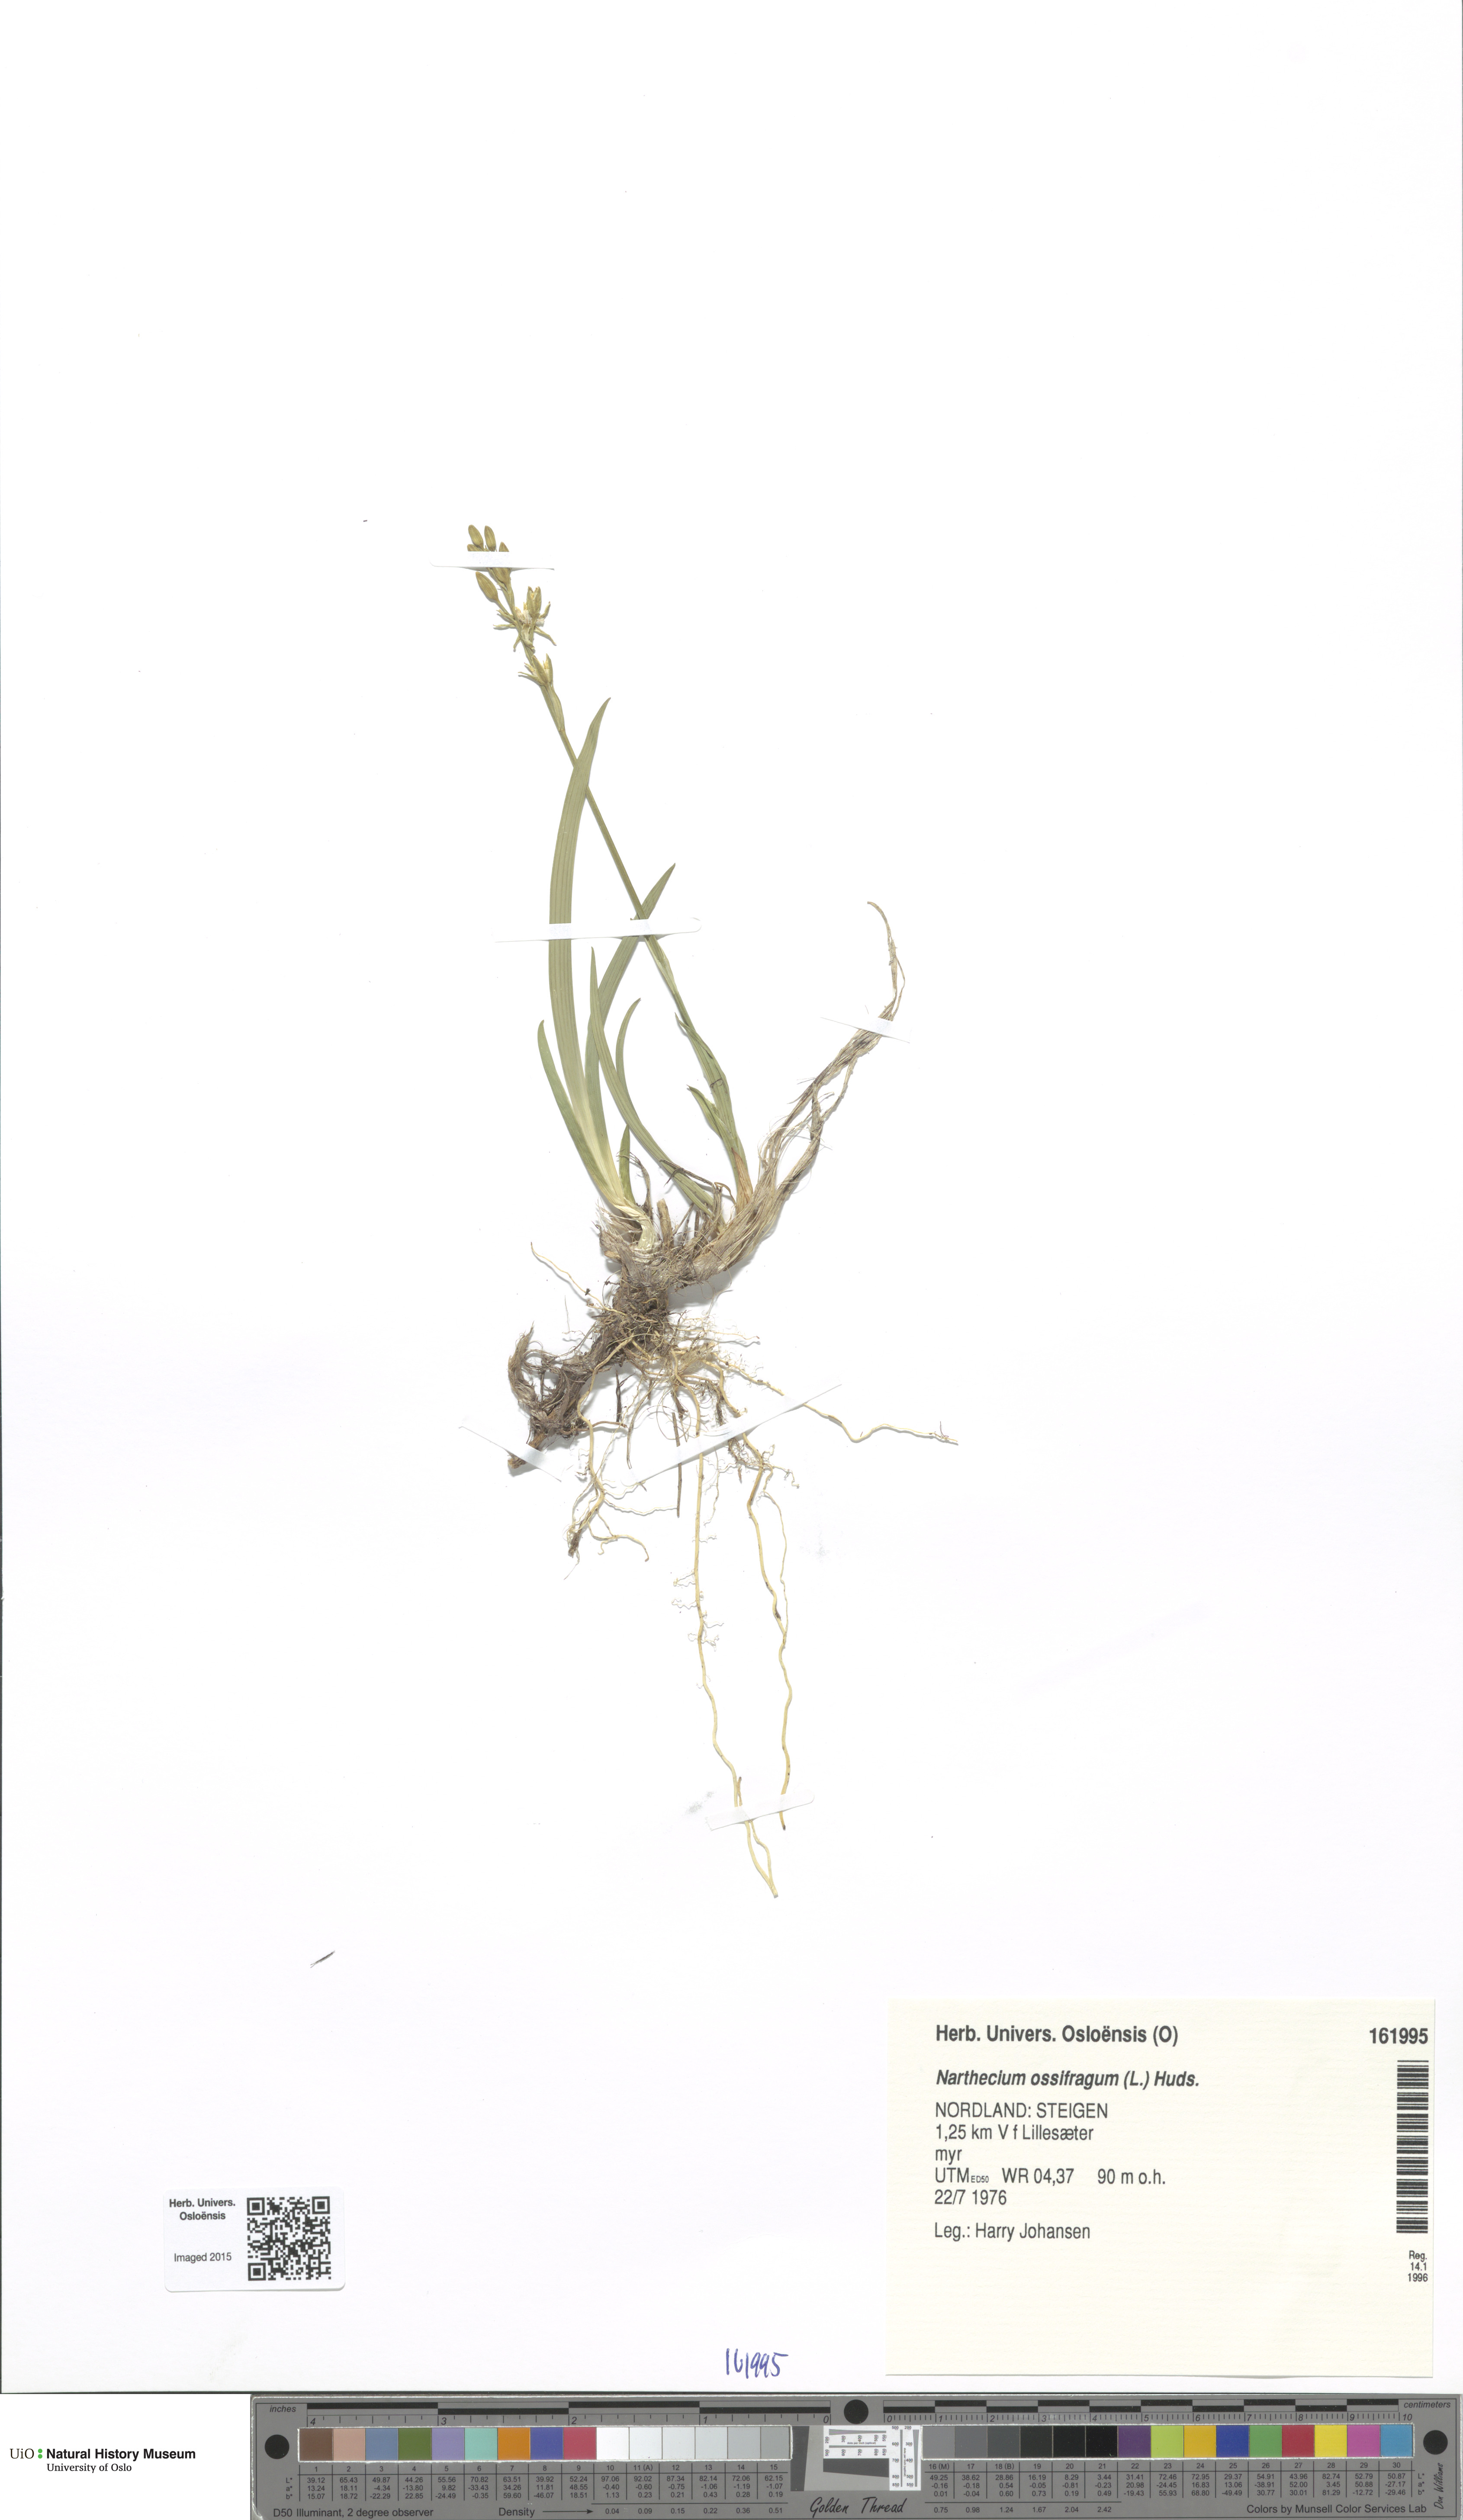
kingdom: Plantae
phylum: Tracheophyta
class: Liliopsida
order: Dioscoreales
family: Nartheciaceae
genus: Narthecium
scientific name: Narthecium ossifragum
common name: Bog asphodel
